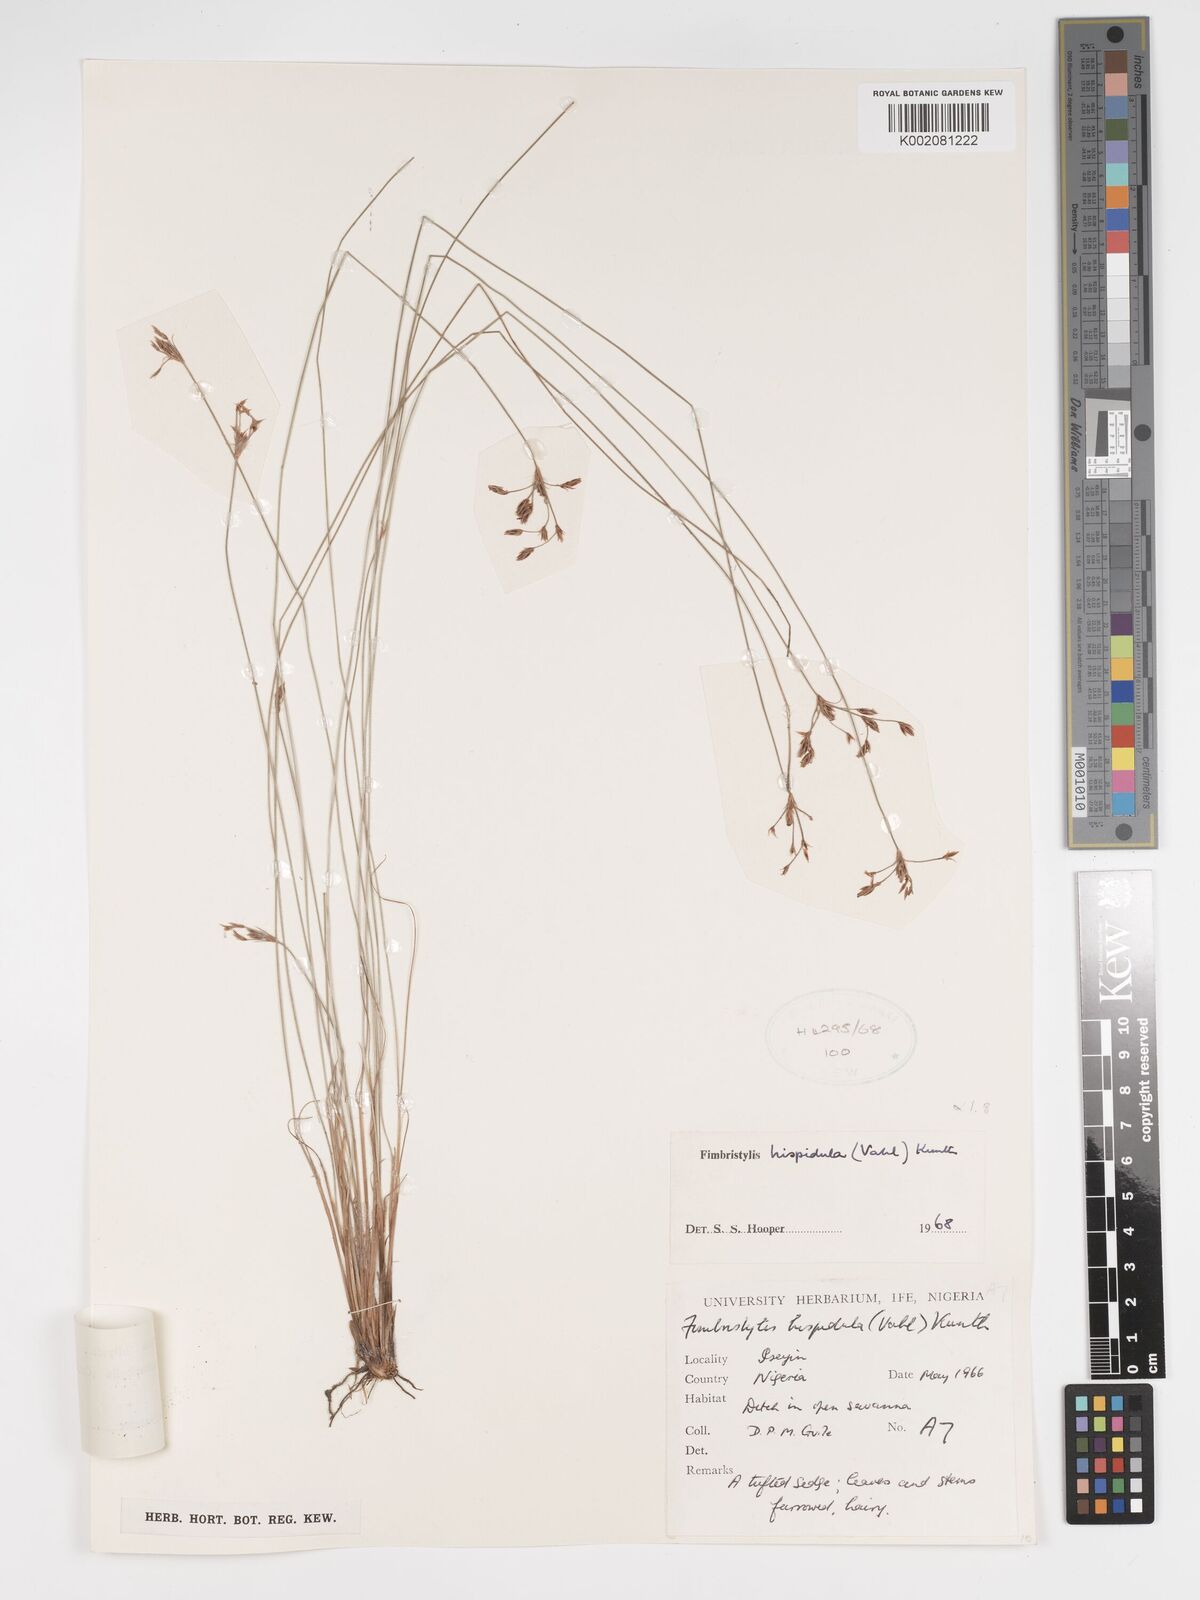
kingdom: Plantae
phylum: Tracheophyta
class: Liliopsida
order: Poales
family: Cyperaceae
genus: Bulbostylis
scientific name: Bulbostylis hispidula
